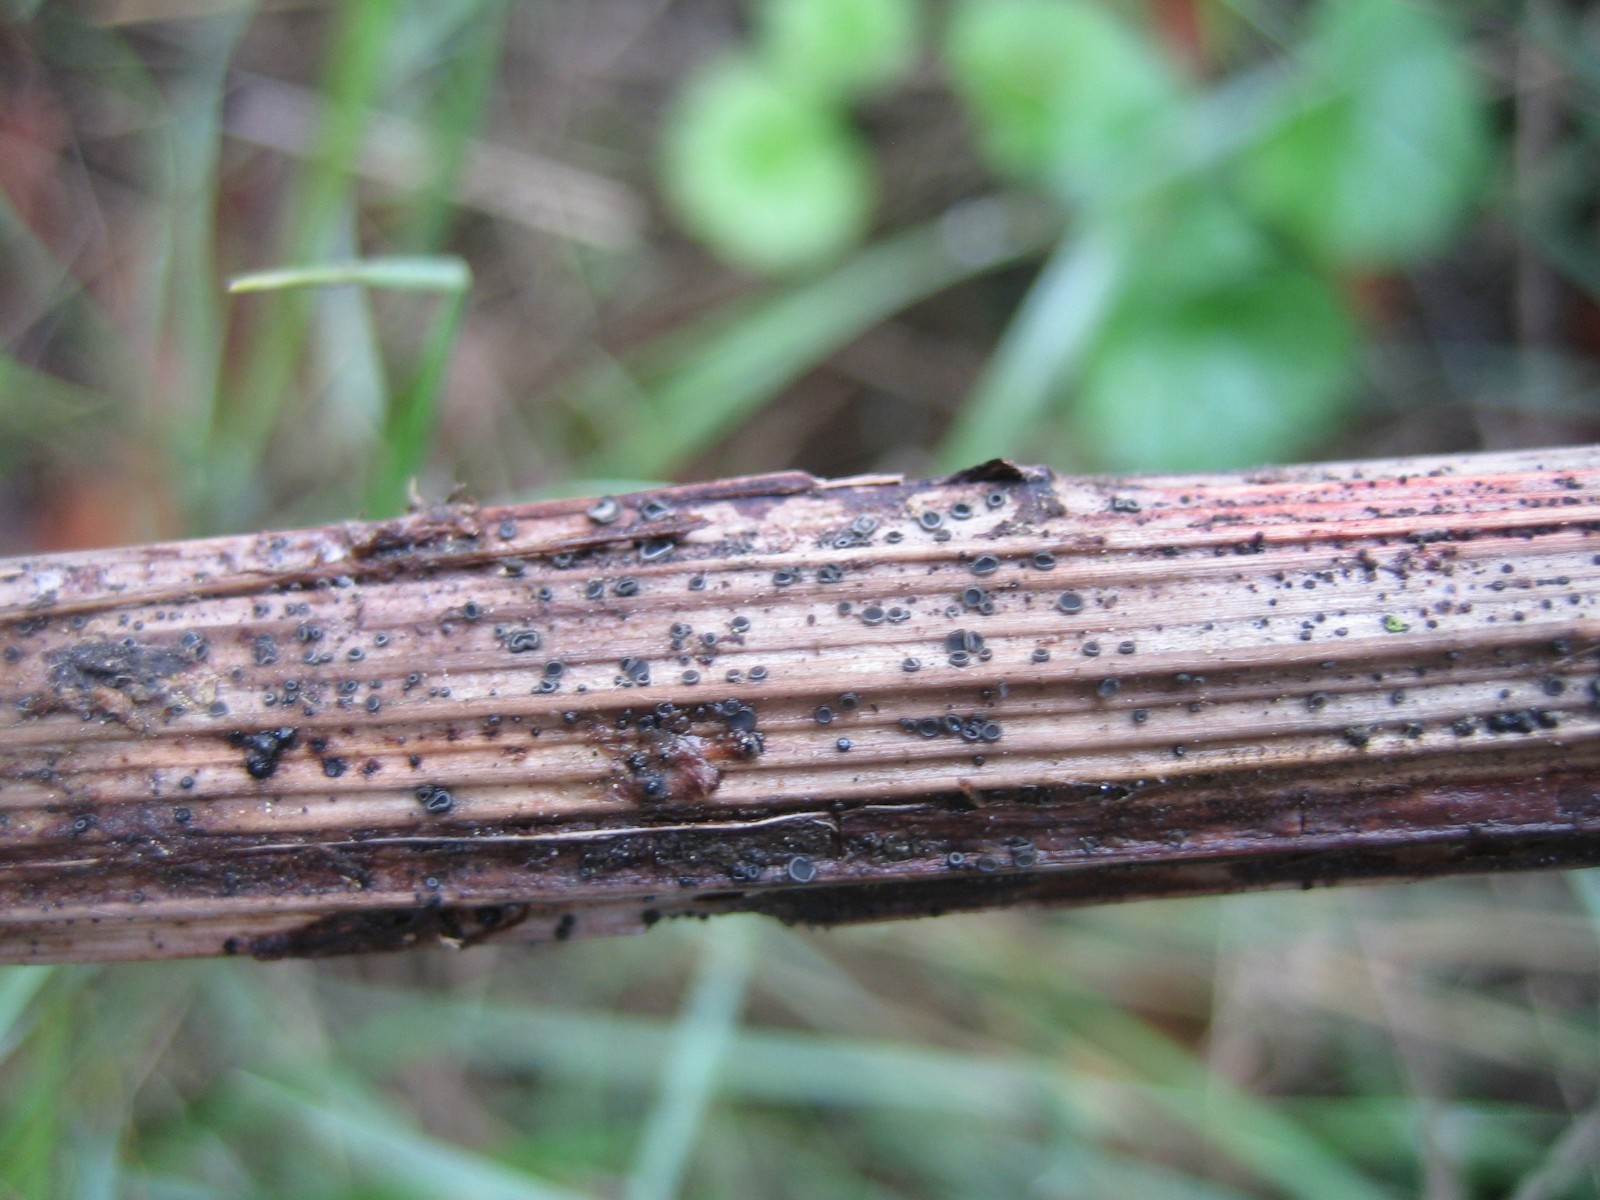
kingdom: Fungi
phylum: Ascomycota
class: Leotiomycetes
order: Helotiales
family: Mollisiaceae
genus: Mollisia
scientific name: Mollisia
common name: gråskive
